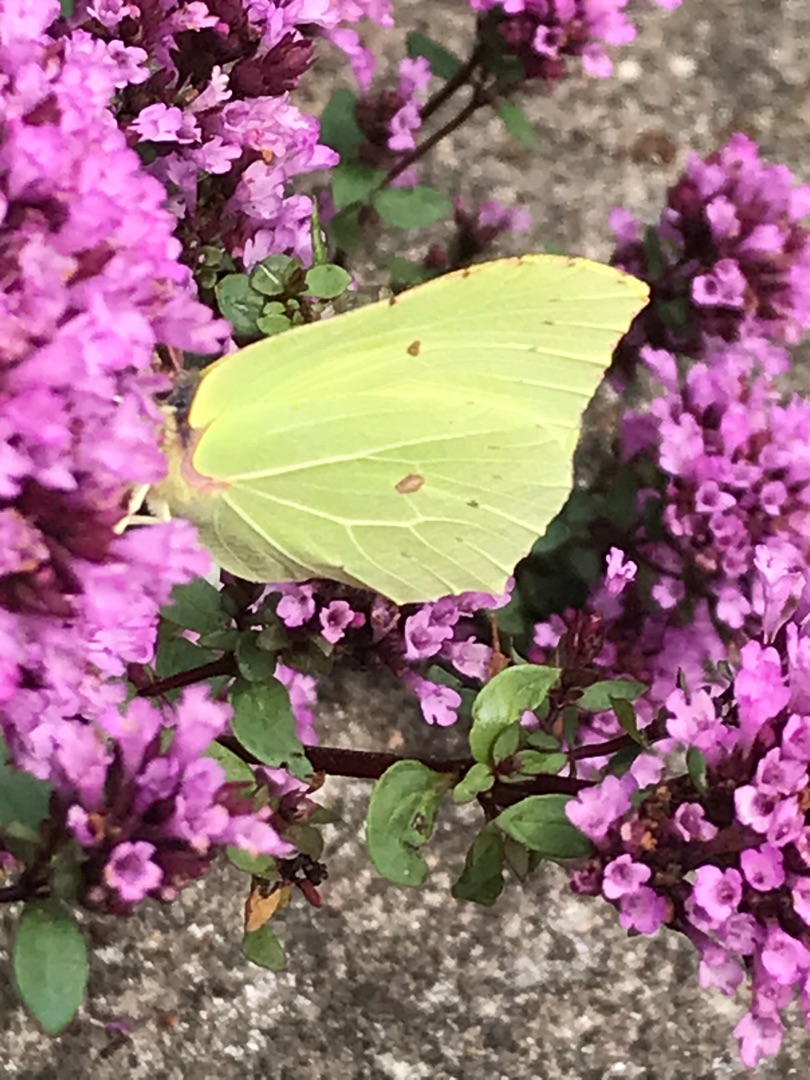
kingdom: Animalia
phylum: Arthropoda
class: Insecta
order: Lepidoptera
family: Pieridae
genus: Gonepteryx
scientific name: Gonepteryx rhamni
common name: Citronsommerfugl
